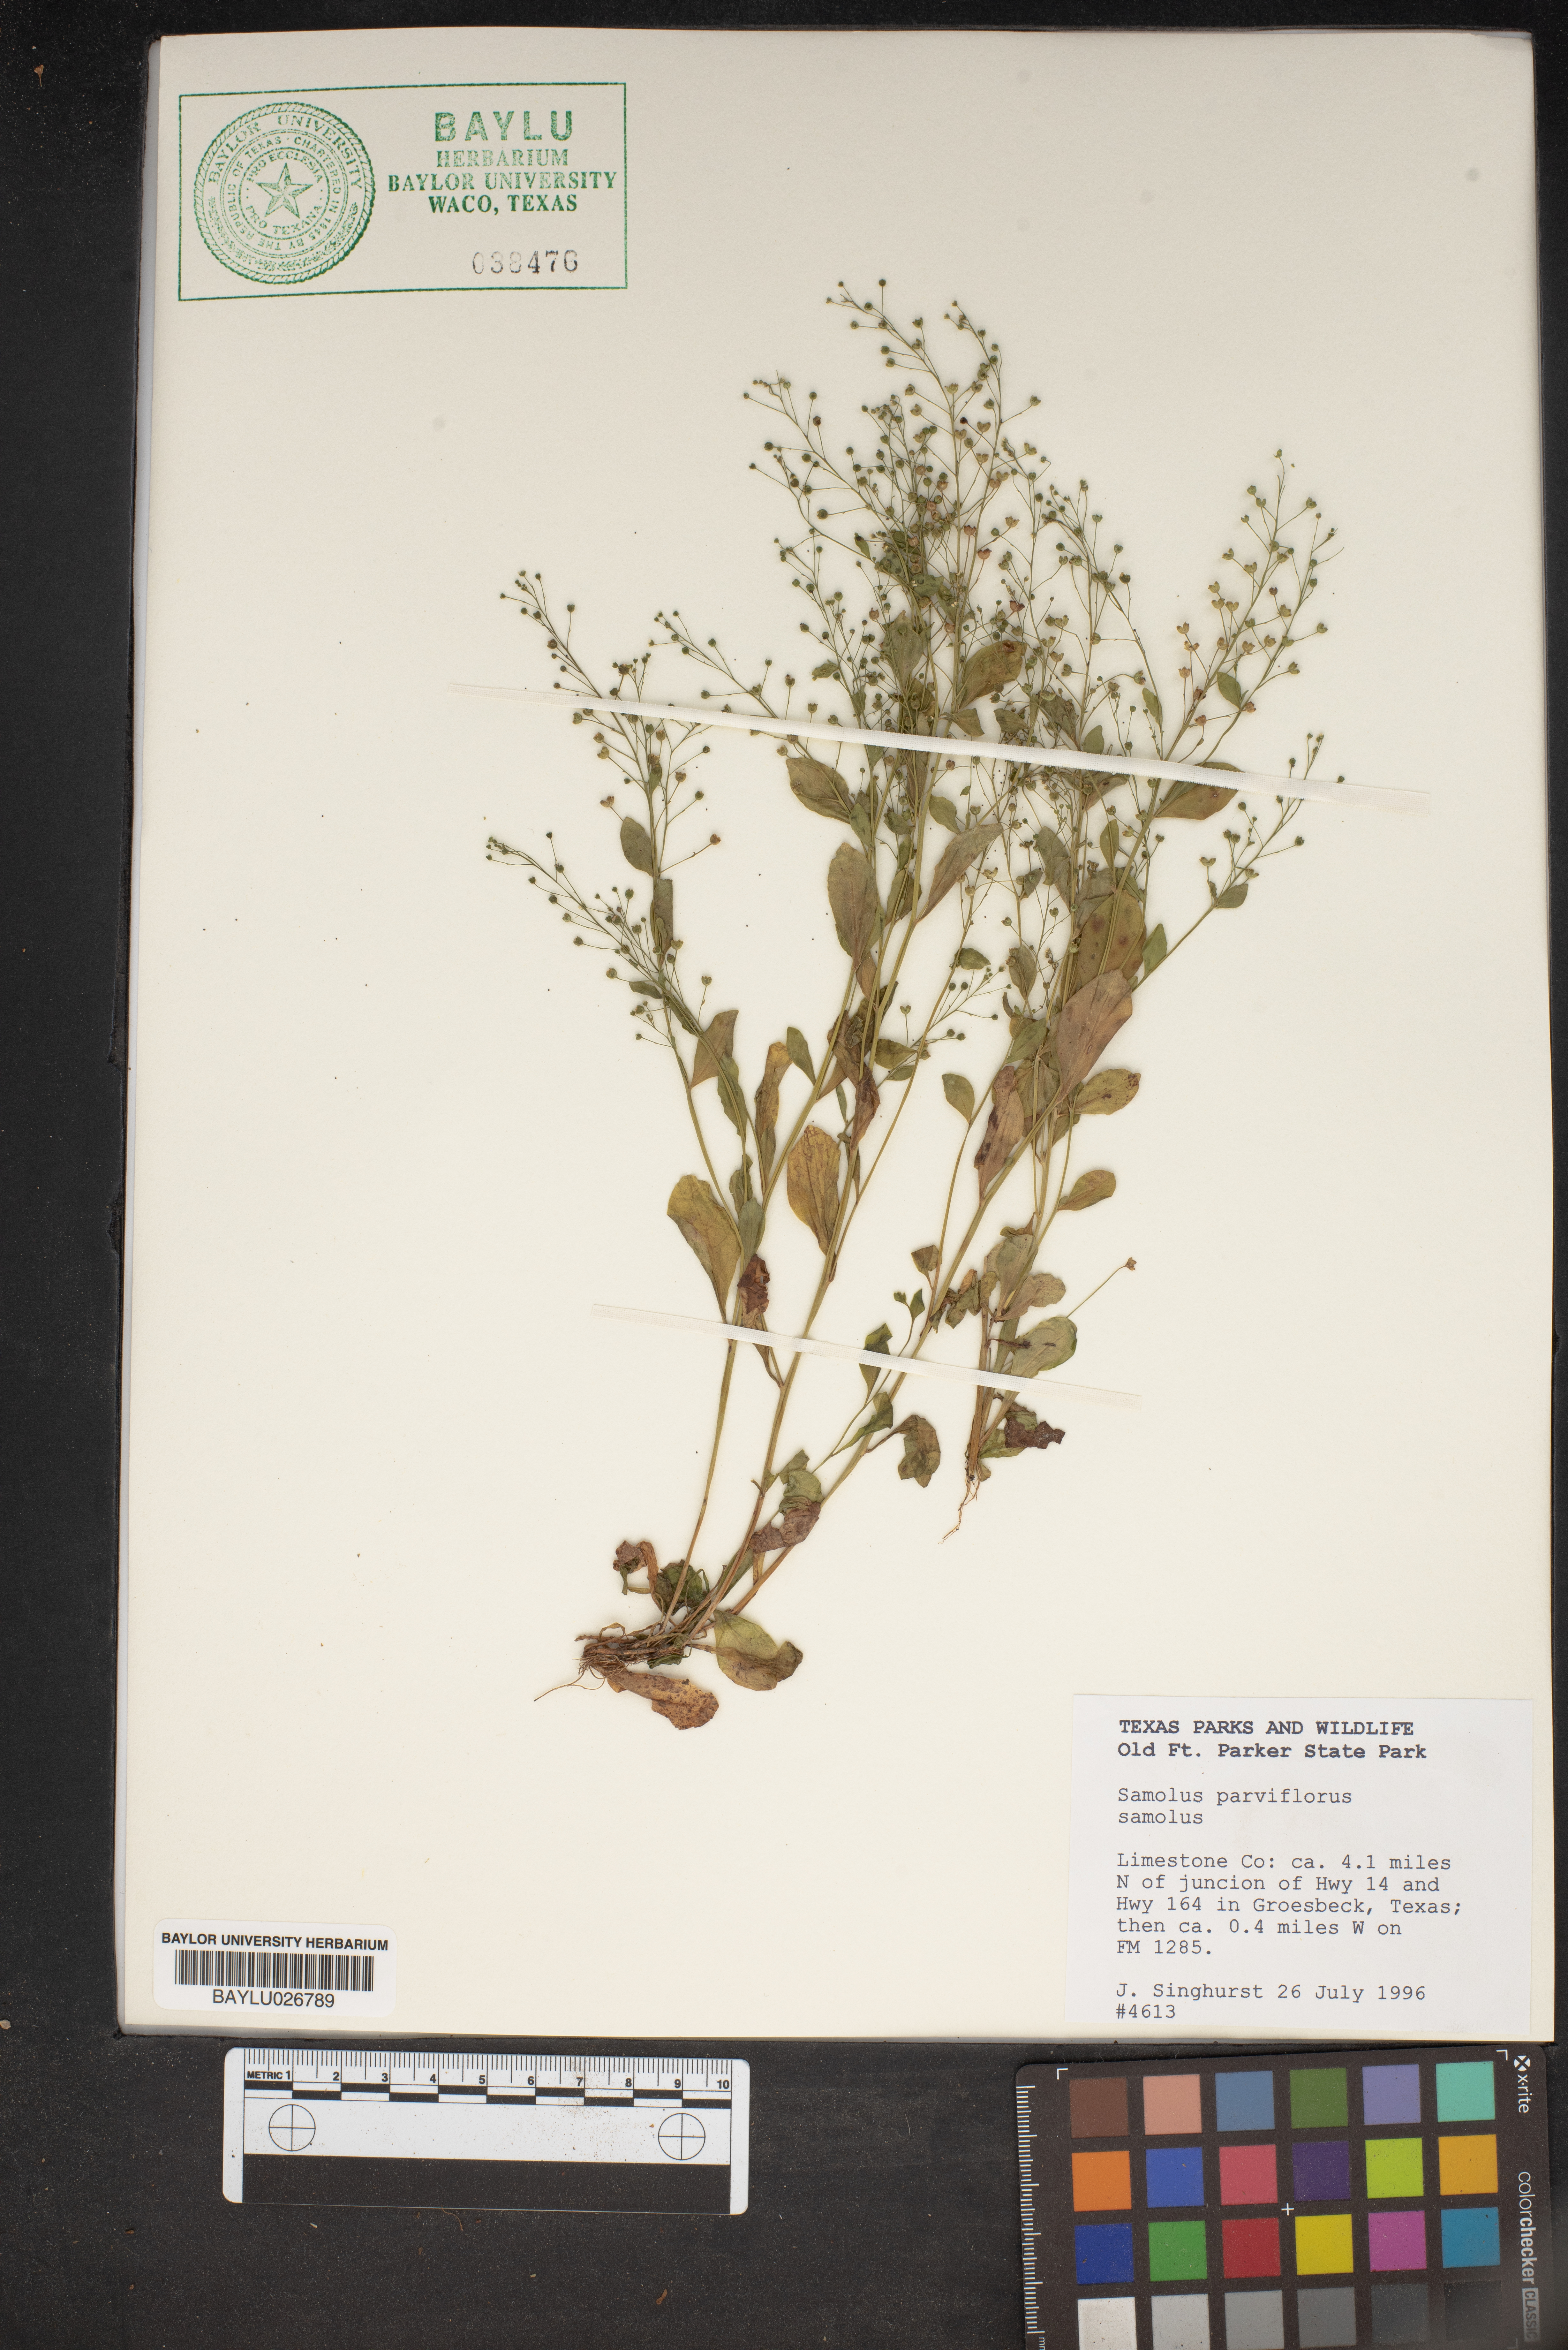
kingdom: Plantae
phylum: Tracheophyta
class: Magnoliopsida
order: Ericales
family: Primulaceae
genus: Samolus
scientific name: Samolus parviflorus
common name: False water pimpernel
